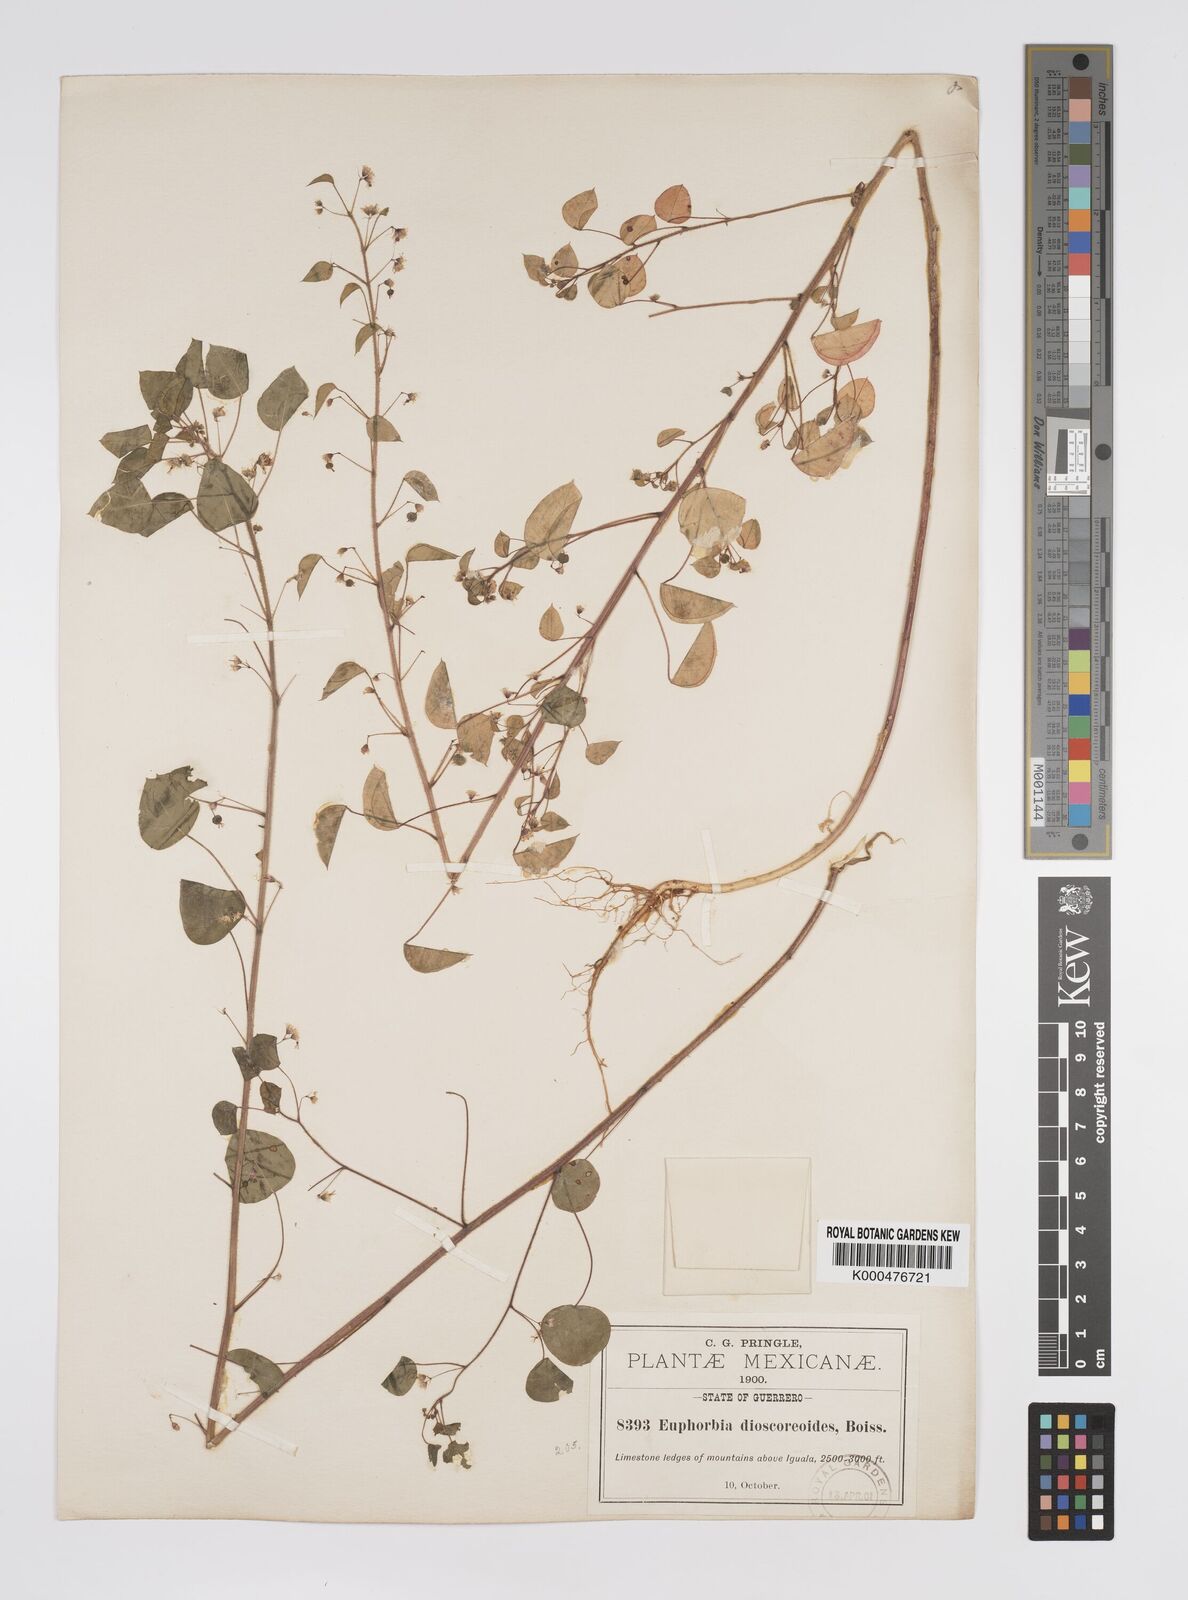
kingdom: Plantae
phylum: Tracheophyta
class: Magnoliopsida
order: Malpighiales
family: Euphorbiaceae
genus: Euphorbia
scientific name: Euphorbia dioscoreoides
